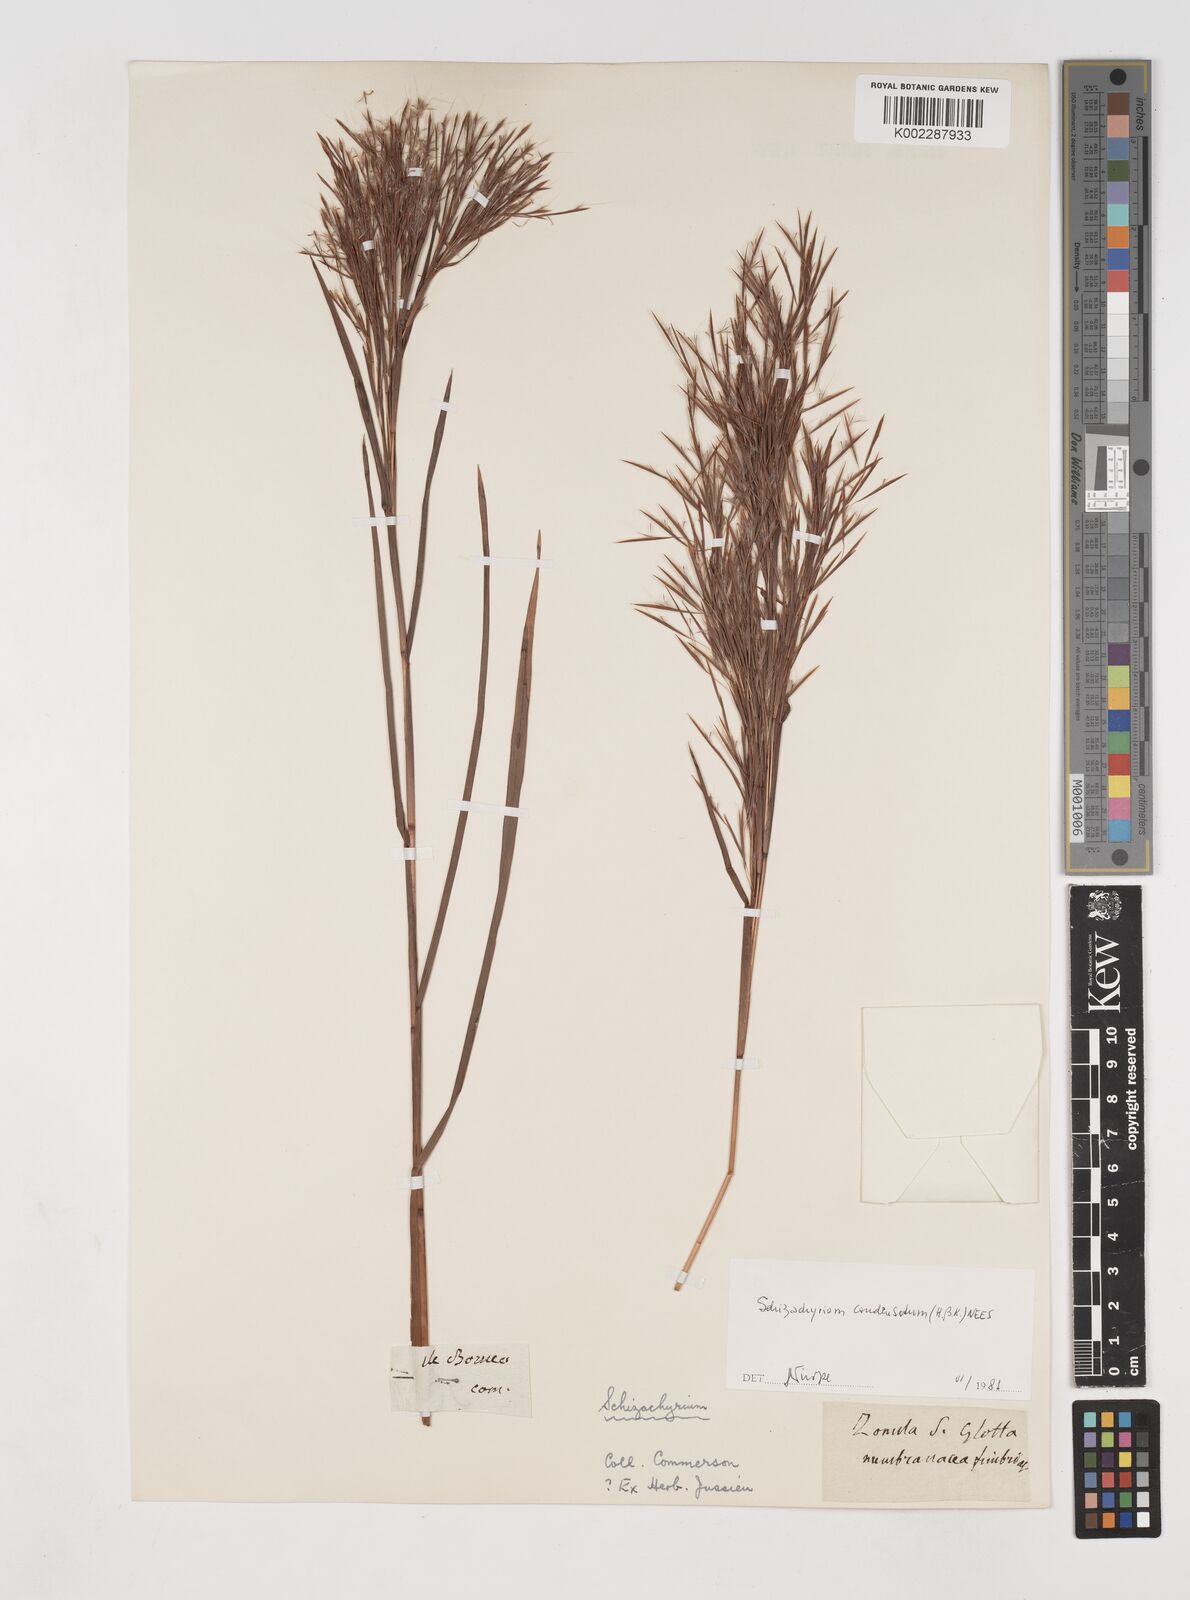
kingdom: Plantae
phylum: Tracheophyta
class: Liliopsida
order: Poales
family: Poaceae
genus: Schizachyrium
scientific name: Schizachyrium condensatum
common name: Bush beardgrass
